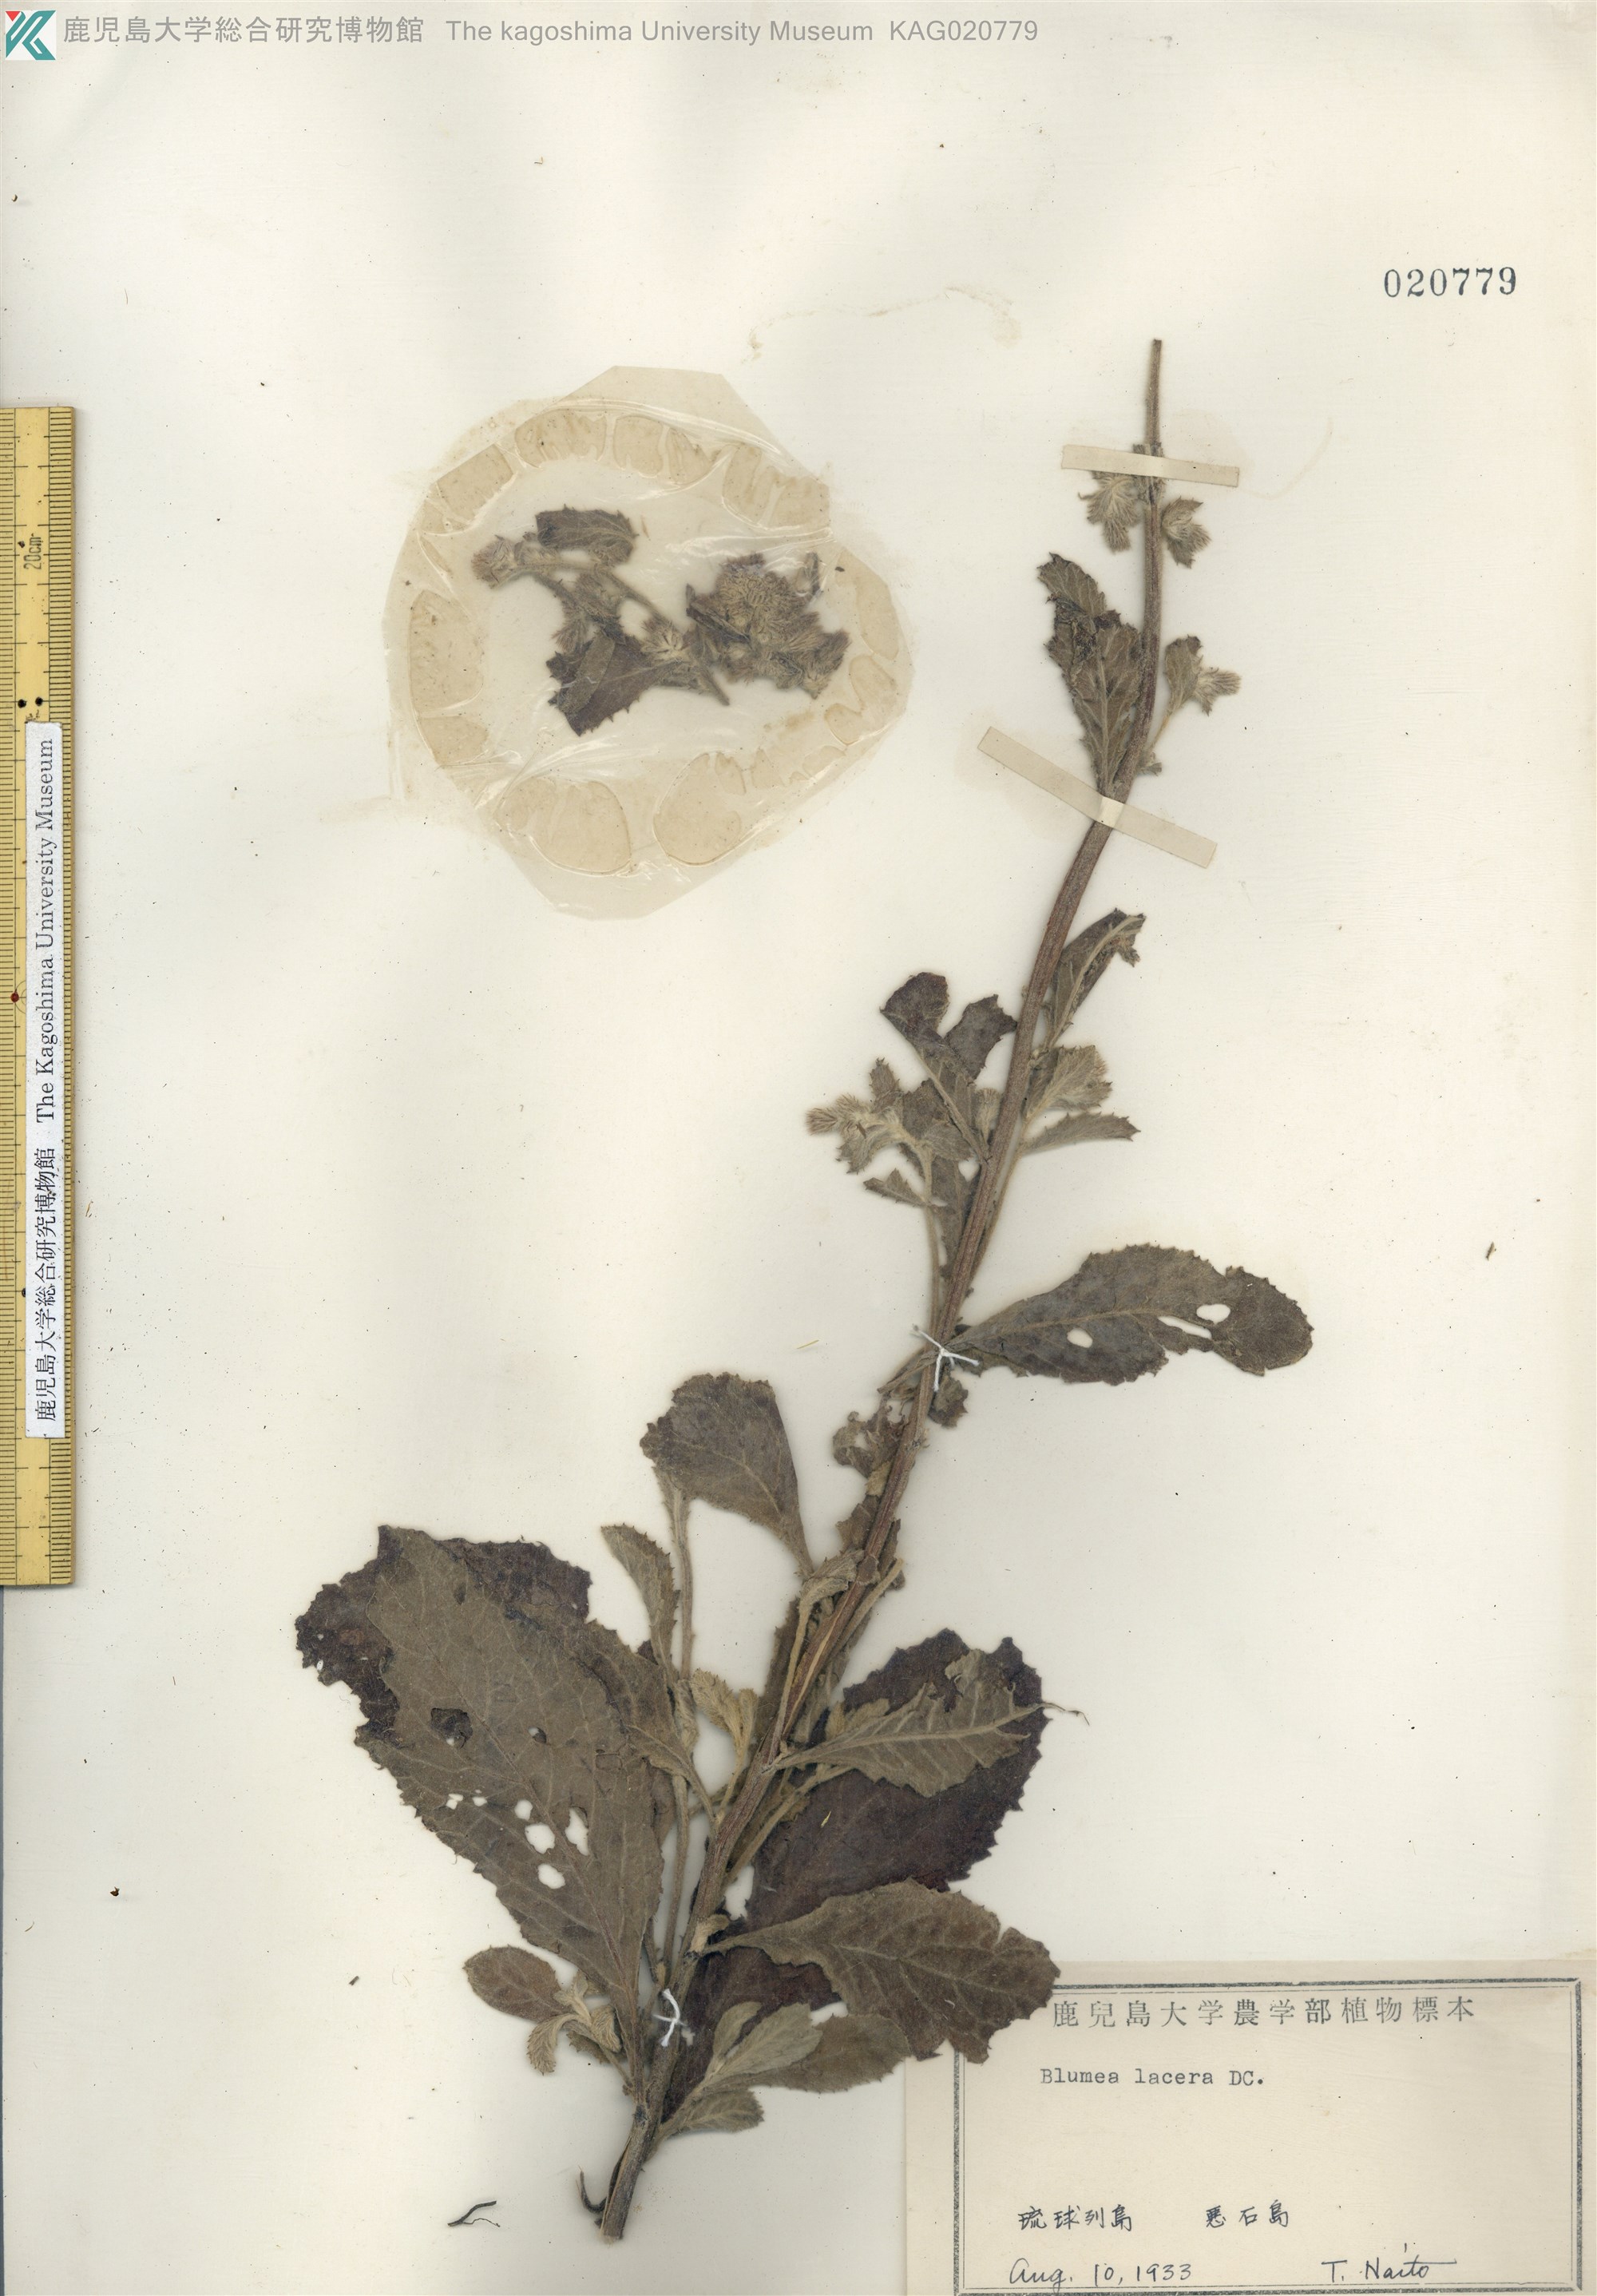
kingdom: Plantae
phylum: Tracheophyta
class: Magnoliopsida
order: Asterales
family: Asteraceae
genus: Blumea
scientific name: Blumea lacera
